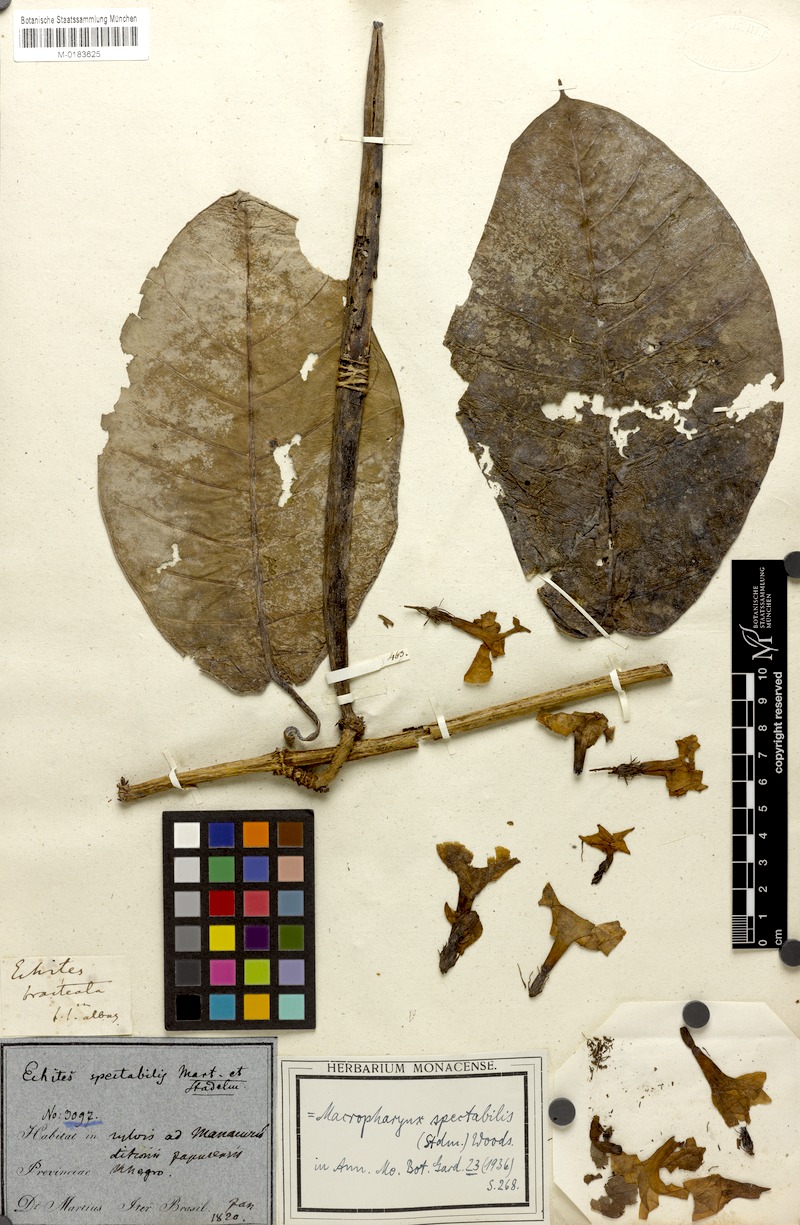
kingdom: Plantae
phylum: Tracheophyta
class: Magnoliopsida
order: Gentianales
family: Apocynaceae
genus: Macropharynx
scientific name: Macropharynx spectabilis
